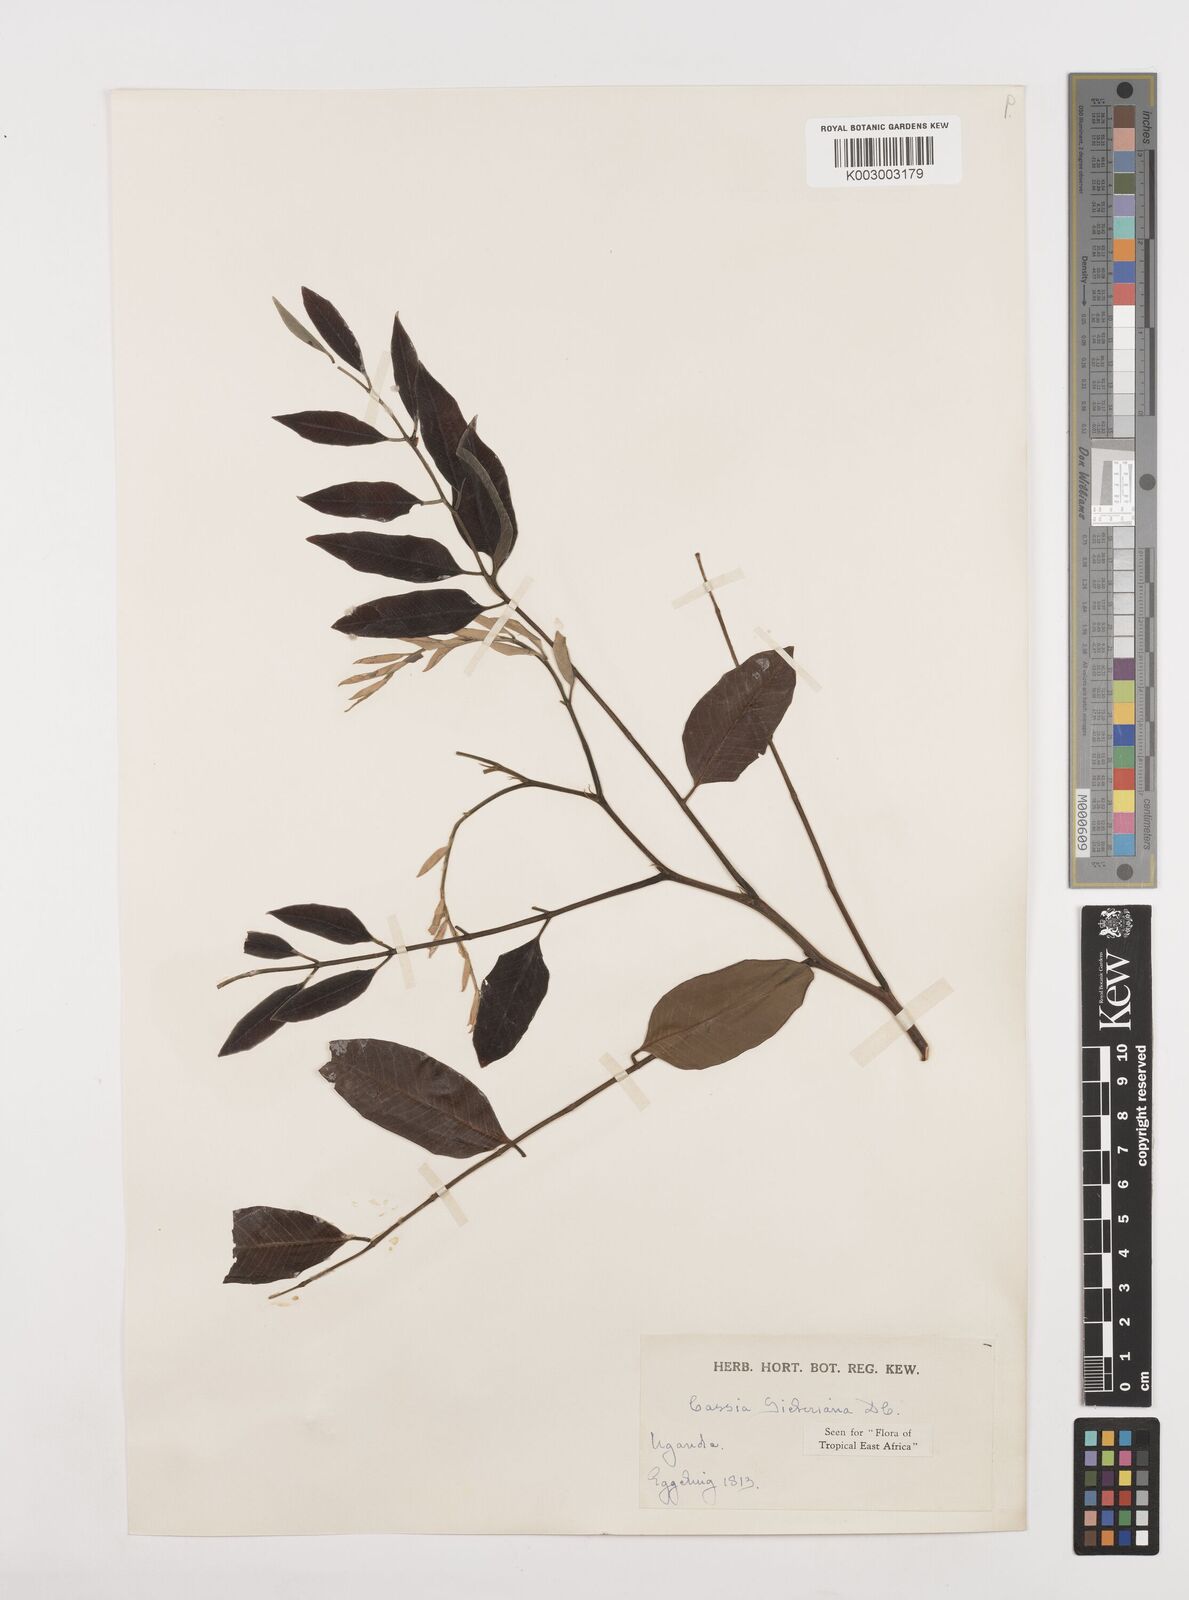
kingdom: Plantae
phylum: Tracheophyta
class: Magnoliopsida
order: Fabales
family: Fabaceae
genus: Cassia
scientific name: Cassia sieberiana
